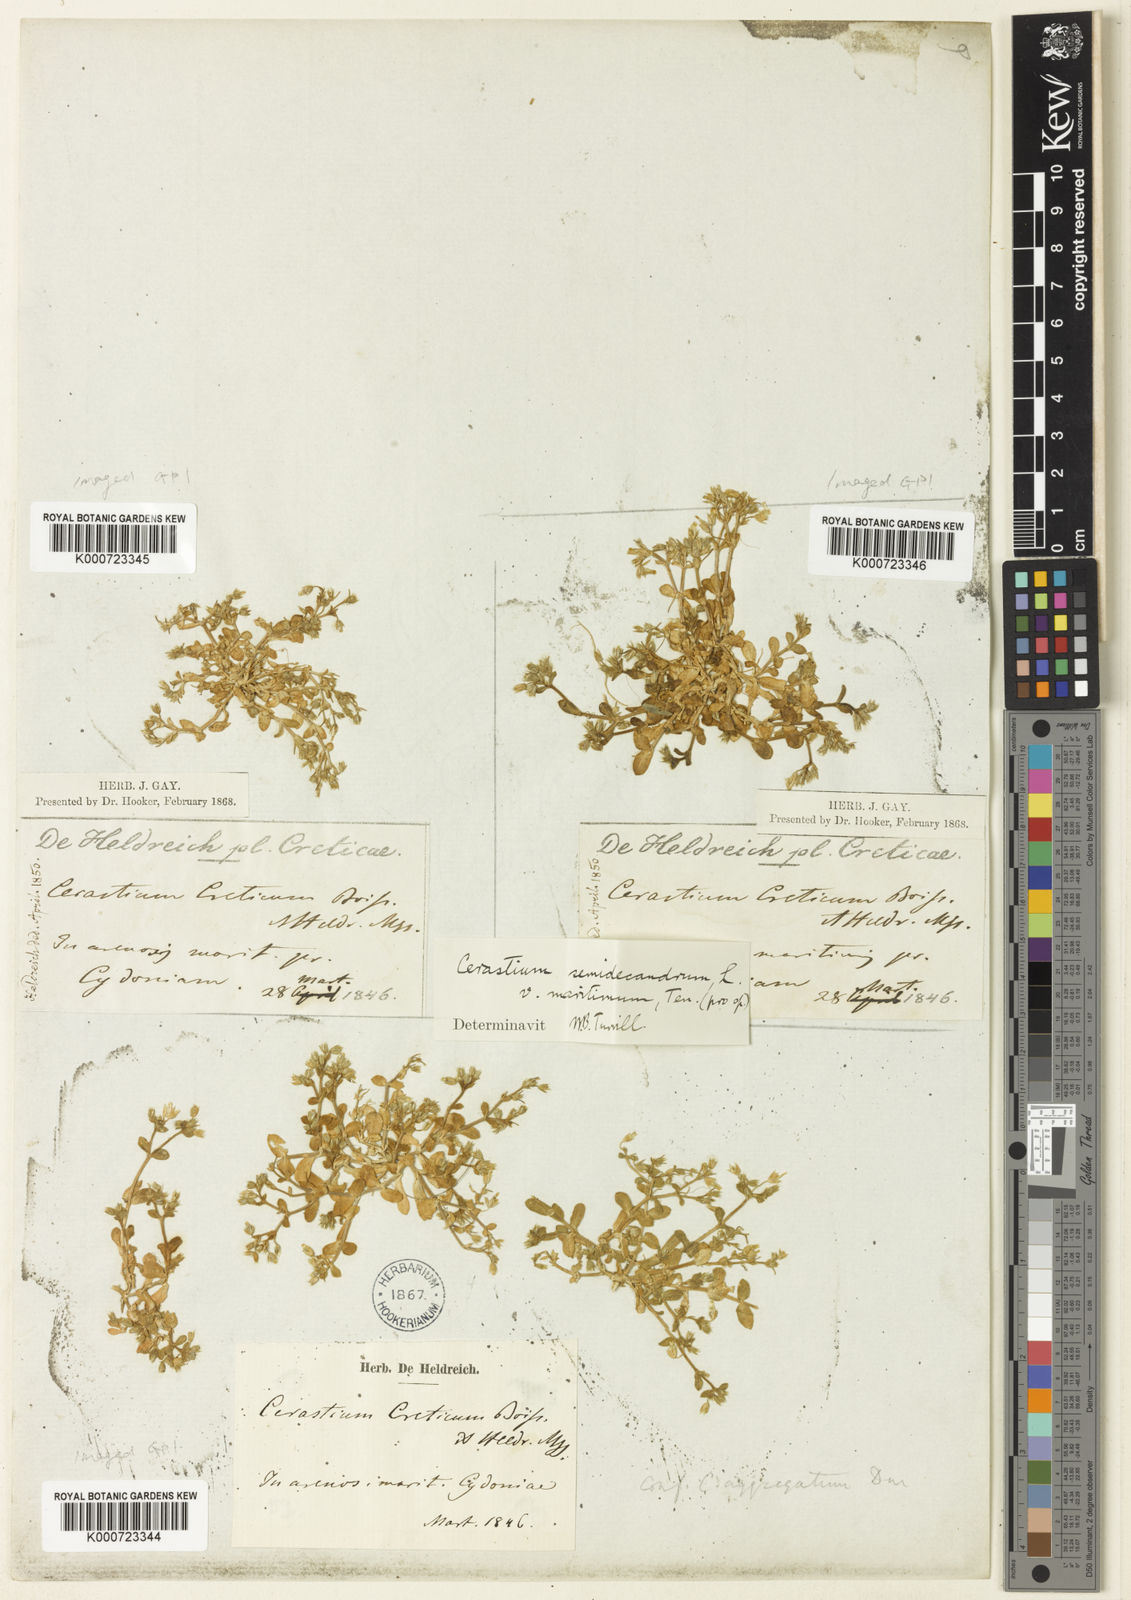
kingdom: Plantae
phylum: Tracheophyta
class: Magnoliopsida
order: Caryophyllales
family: Caryophyllaceae
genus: Cerastium
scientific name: Cerastium semidecandrum
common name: Little mouse-ear
